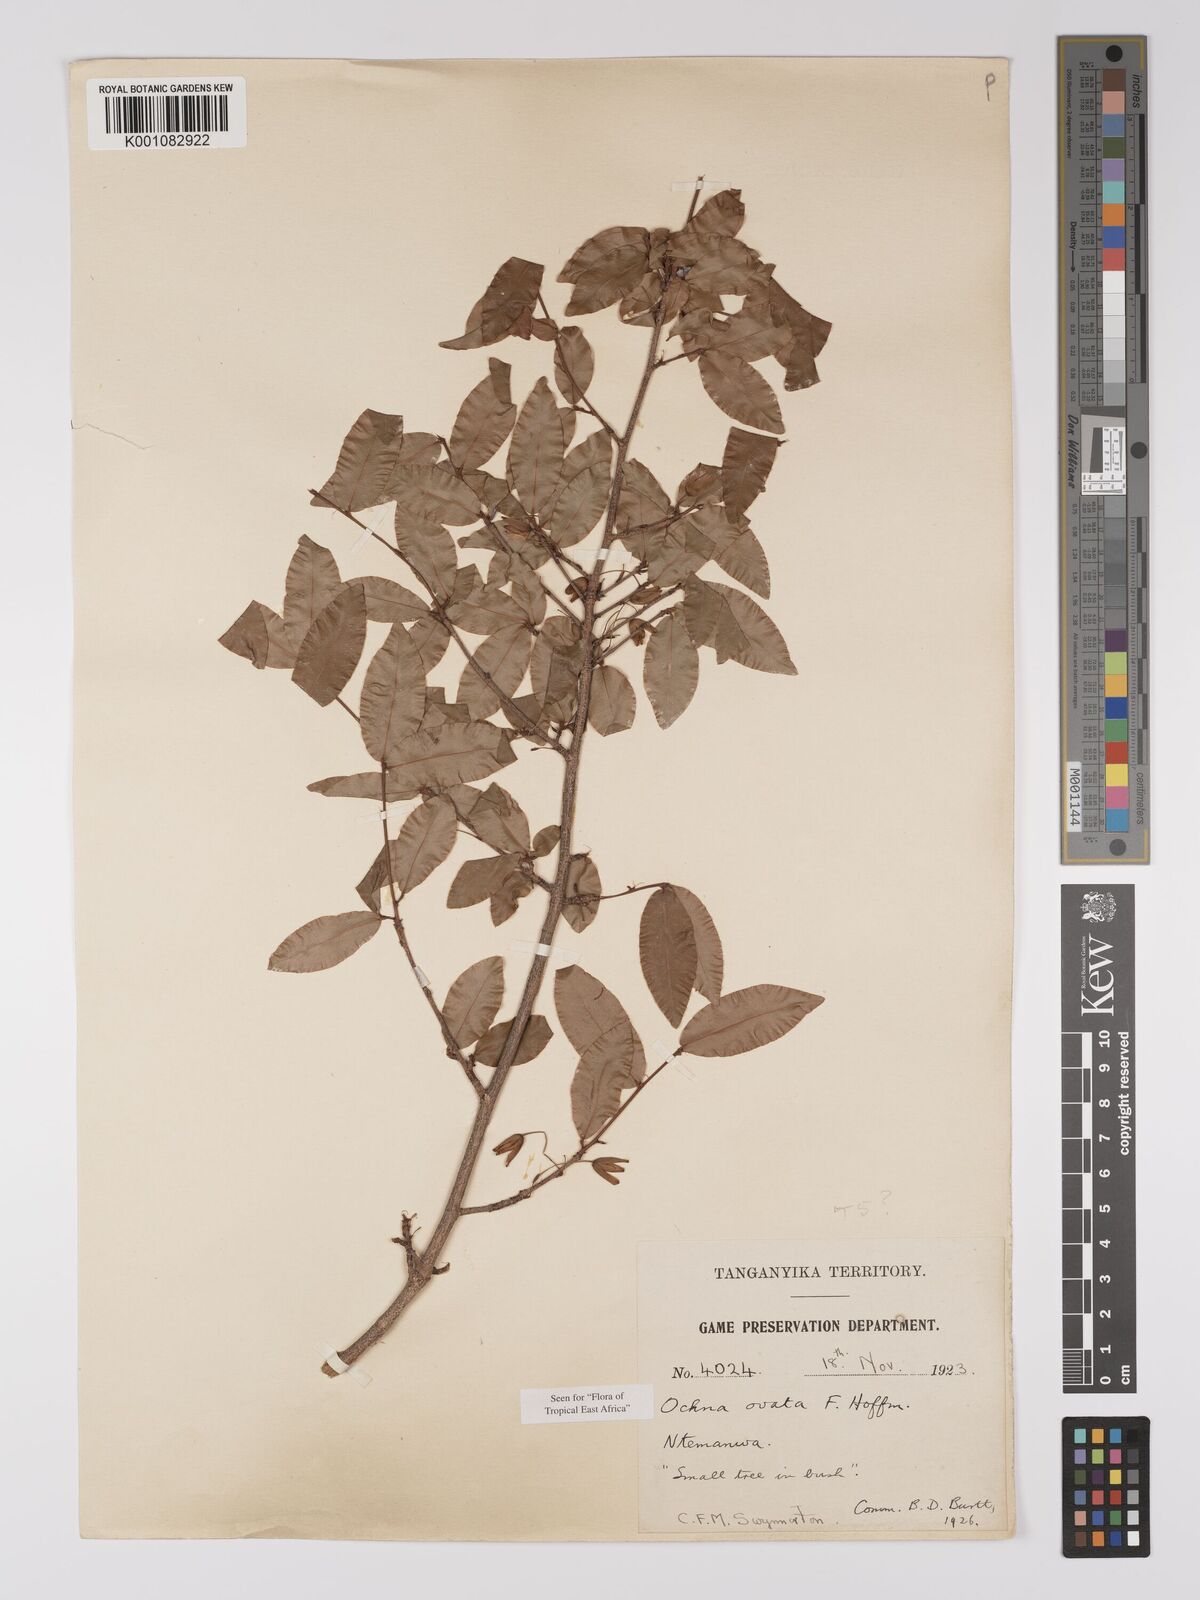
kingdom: Plantae
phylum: Tracheophyta
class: Magnoliopsida
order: Malpighiales
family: Ochnaceae
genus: Ochna
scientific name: Ochna ovata
